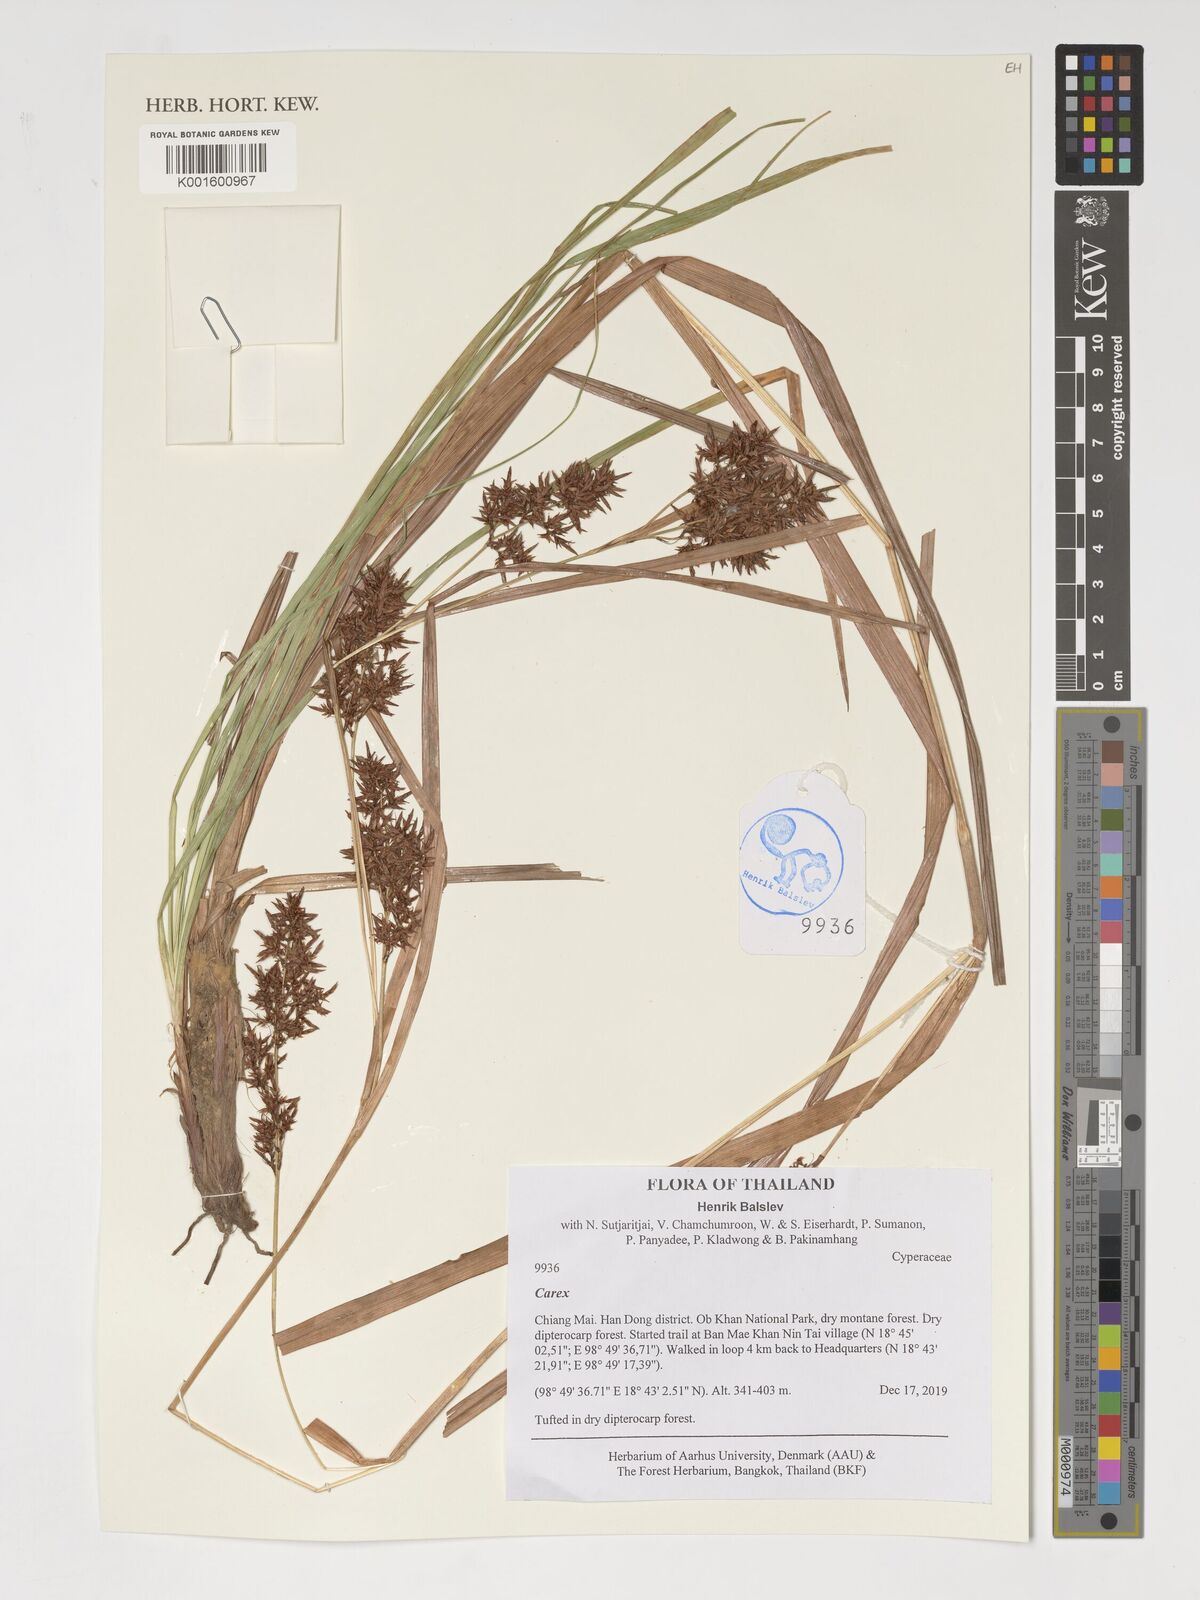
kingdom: Plantae
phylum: Tracheophyta
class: Liliopsida
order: Poales
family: Cyperaceae
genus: Carex
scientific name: Carex
